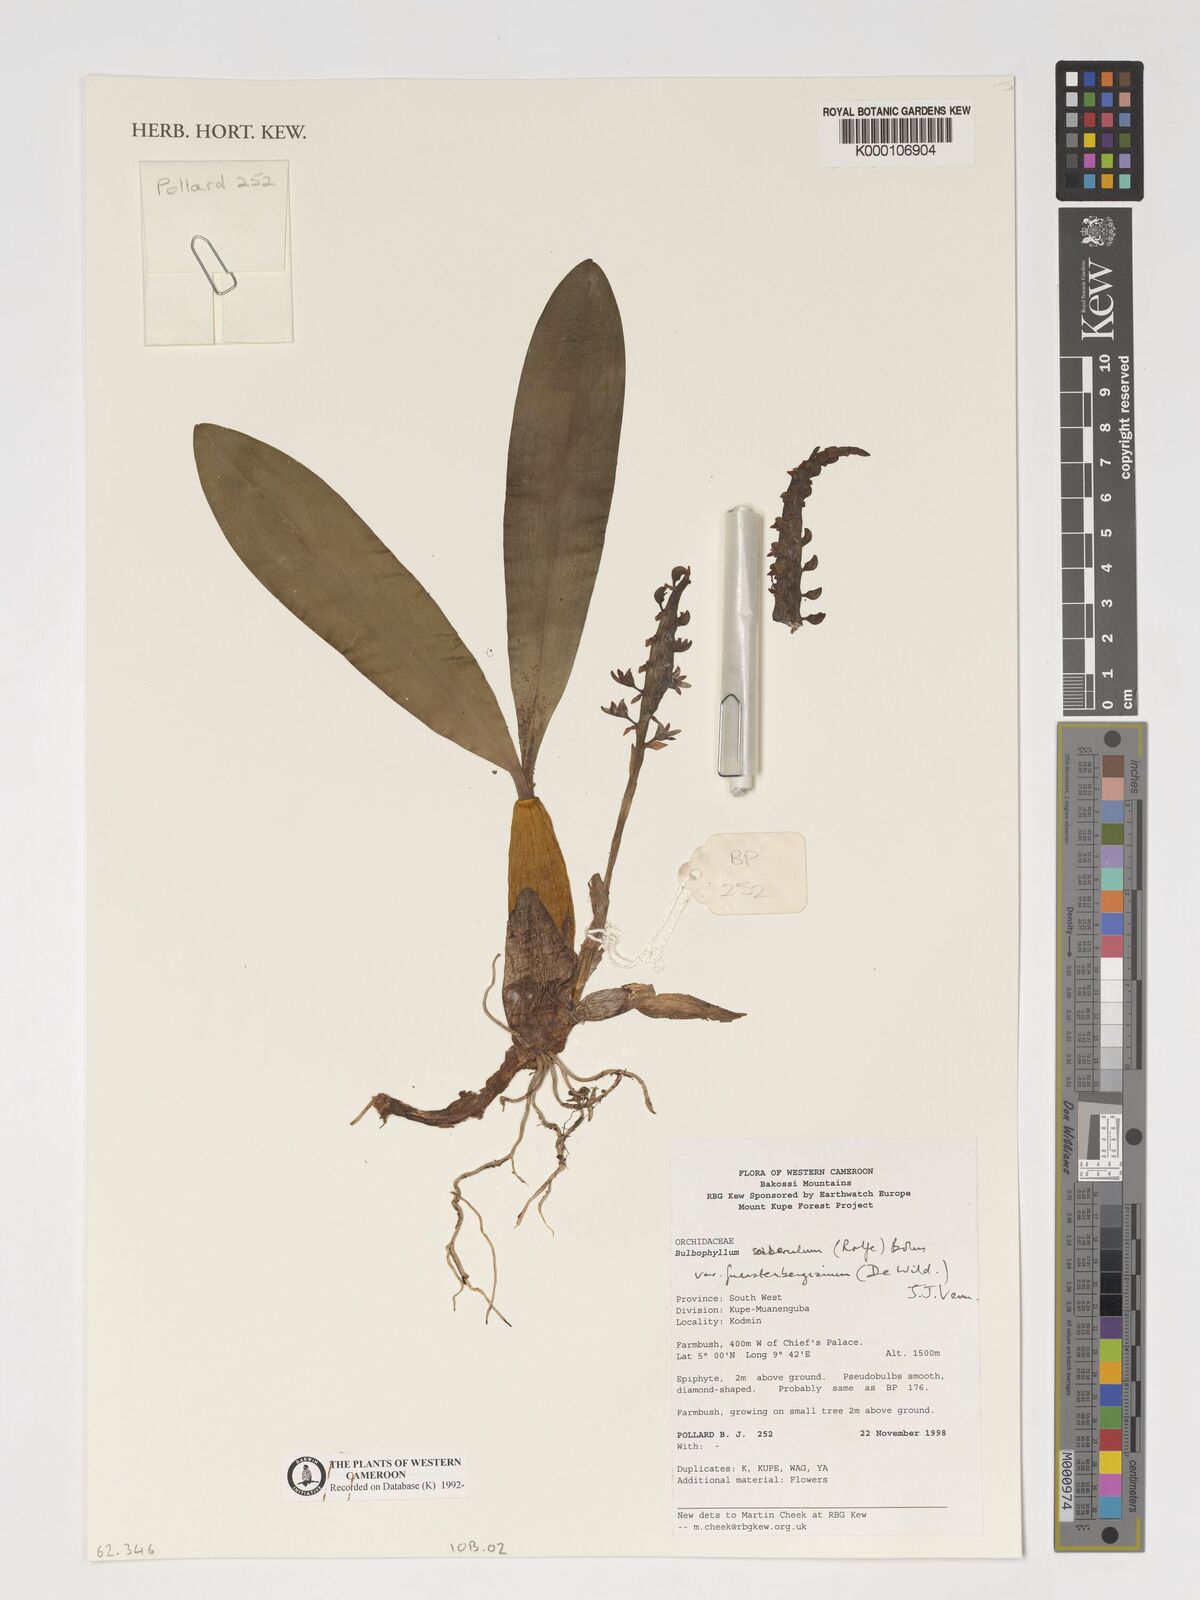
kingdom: Plantae
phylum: Tracheophyta
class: Liliopsida
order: Asparagales
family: Orchidaceae
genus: Bulbophyllum
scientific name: Bulbophyllum scaberulum
